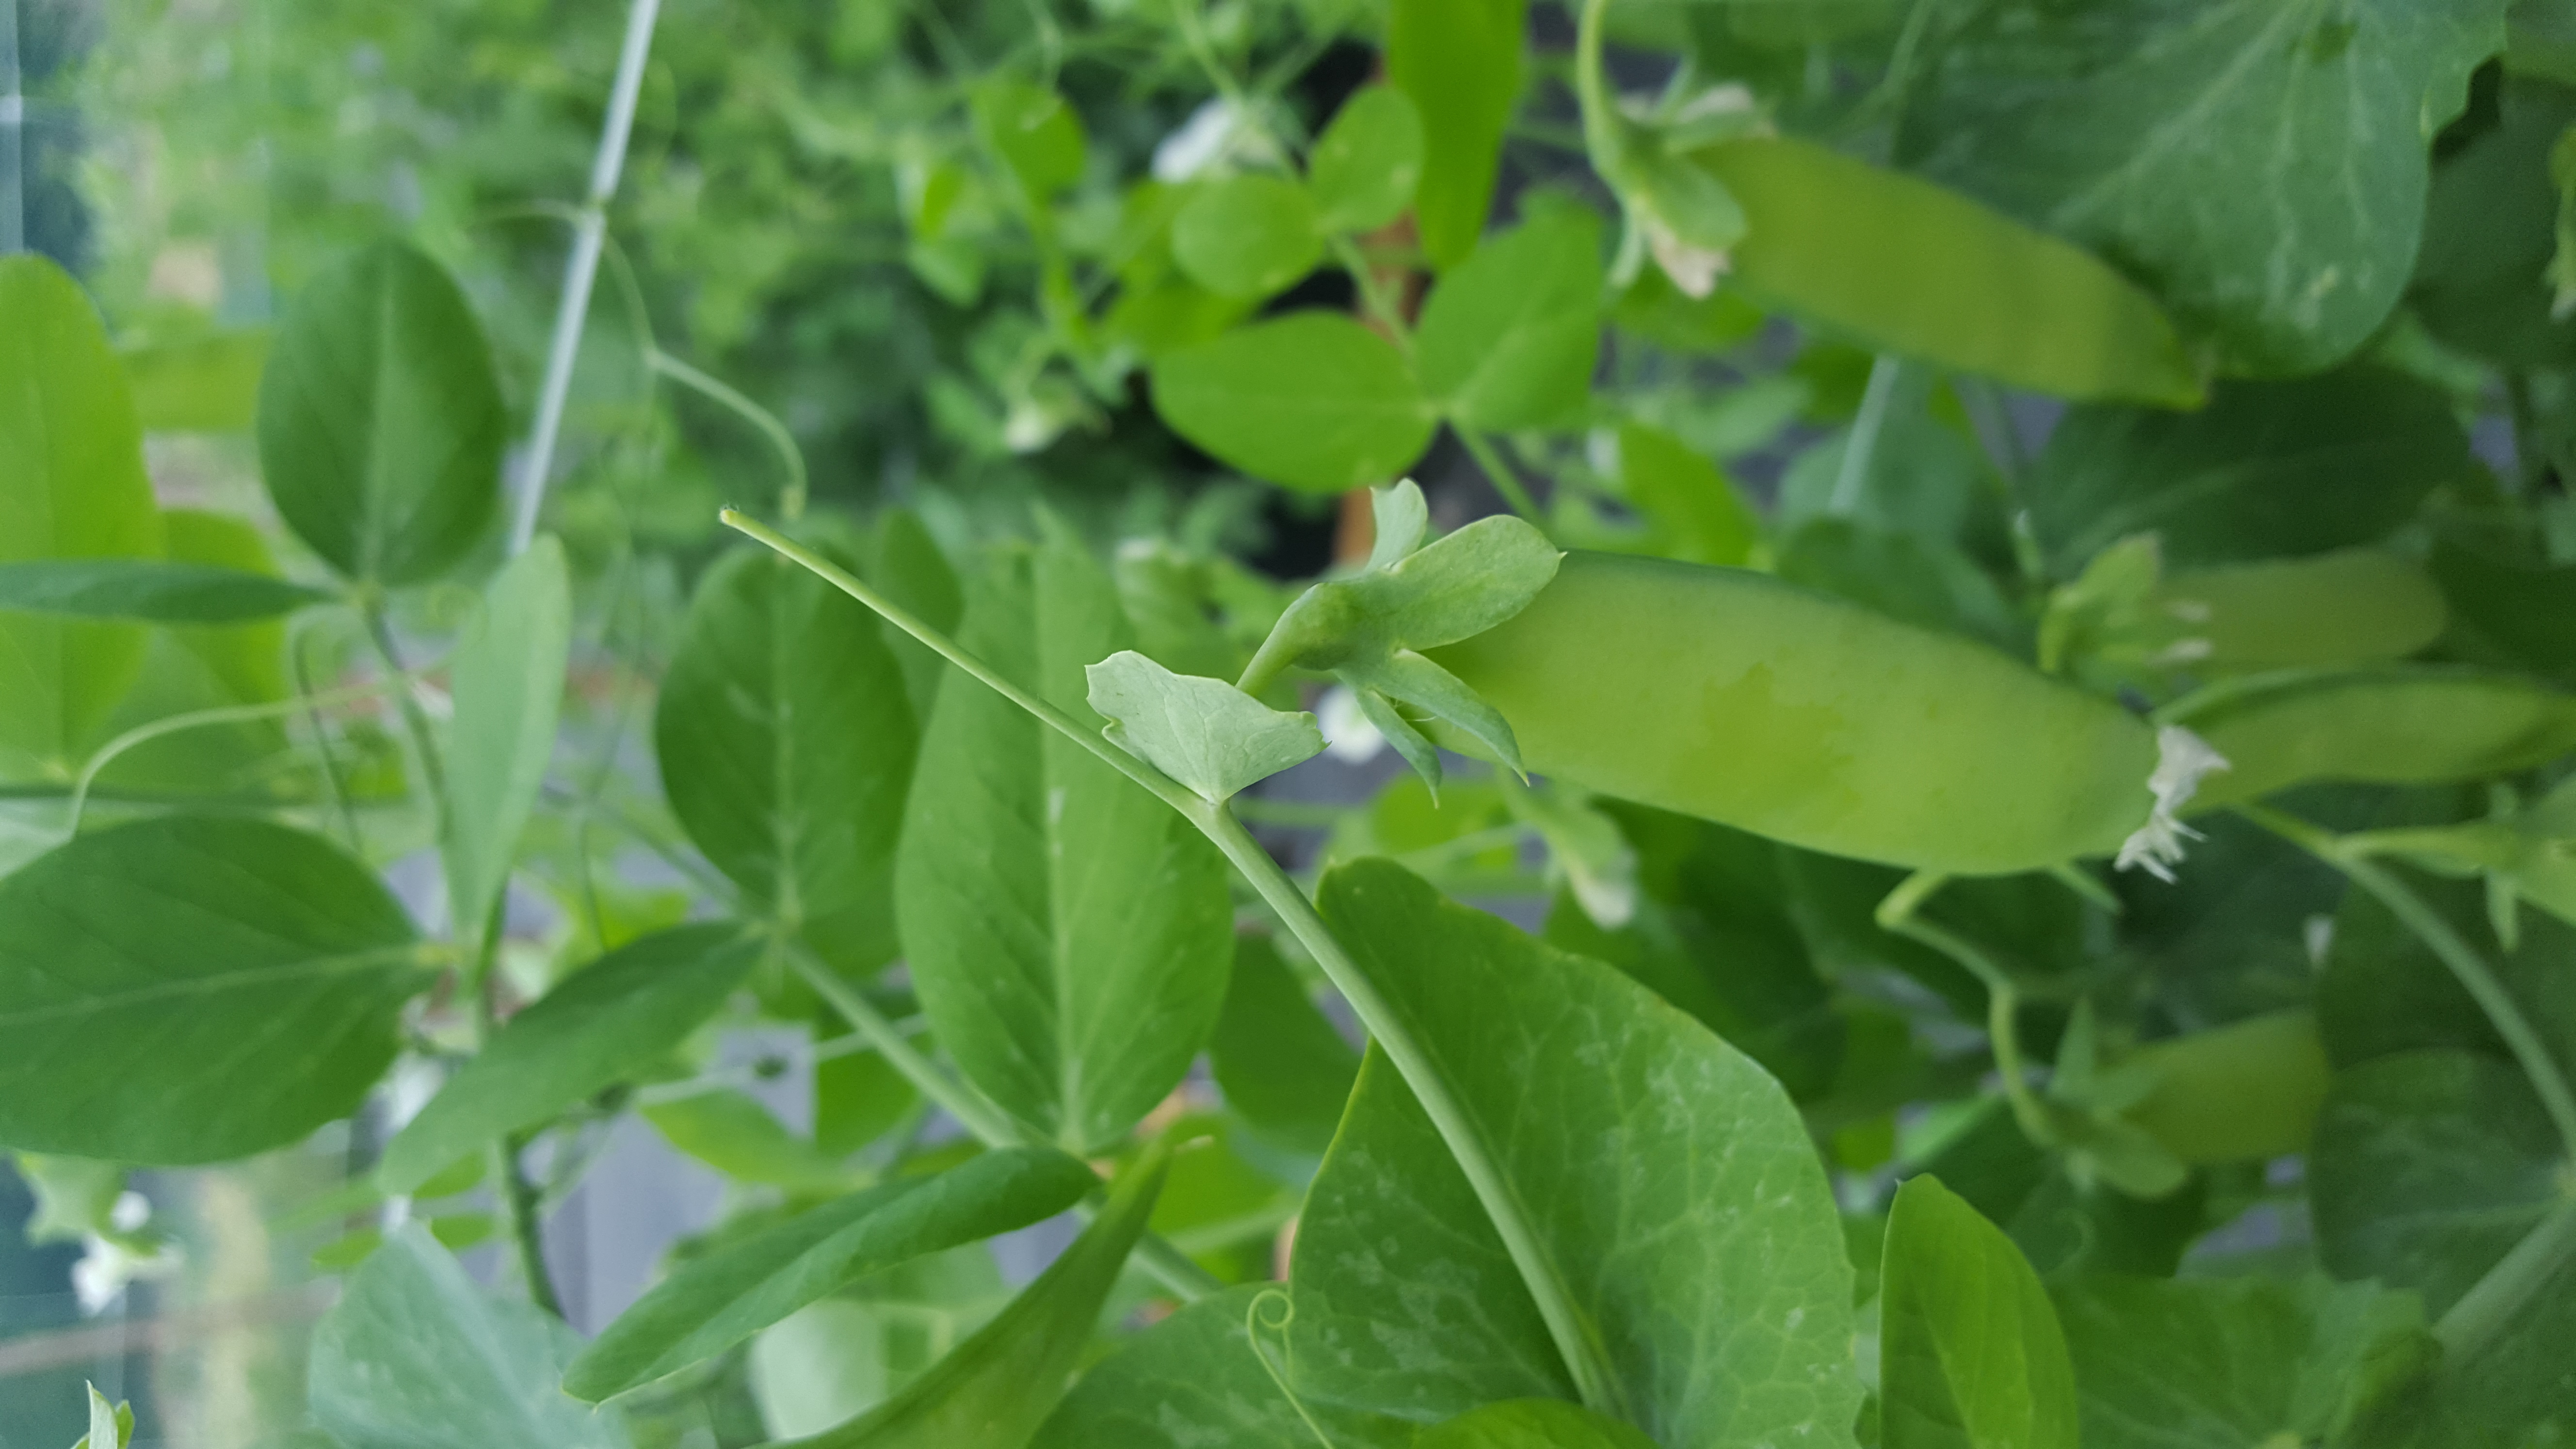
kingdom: Plantae
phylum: Tracheophyta
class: Magnoliopsida
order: Fabales
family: Fabaceae
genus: Lathyrus
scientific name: Lathyrus oleraceus
